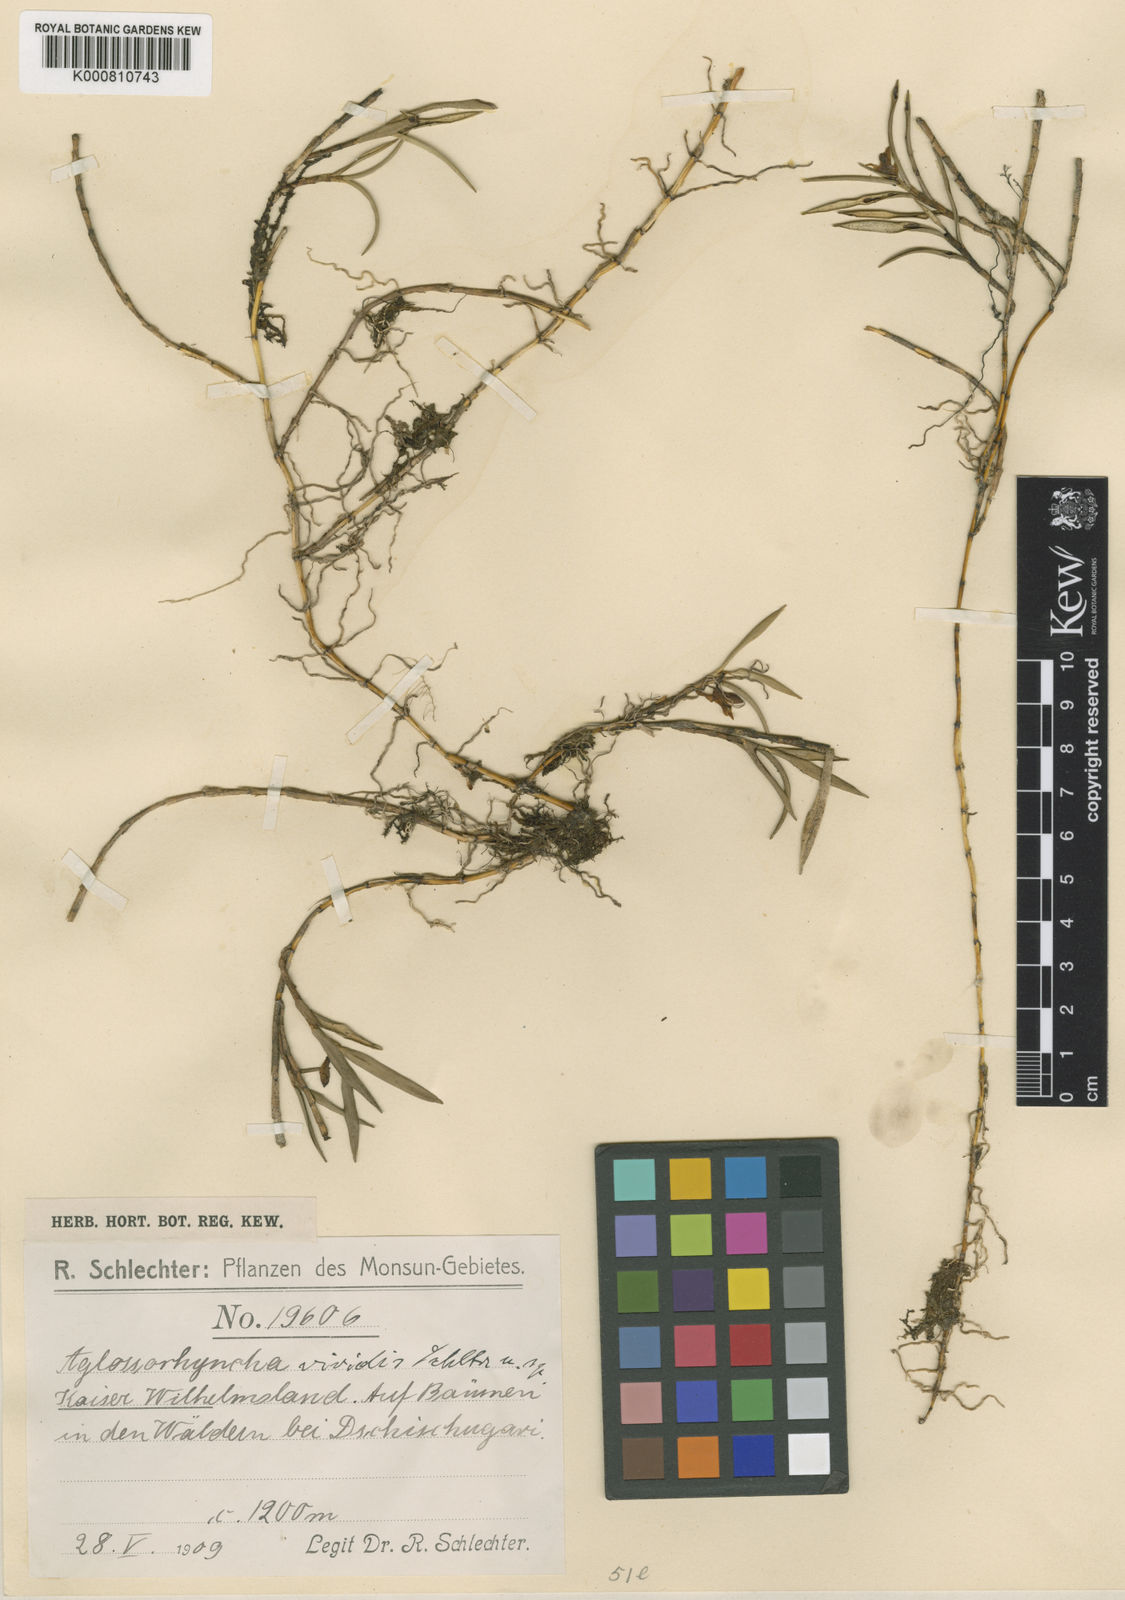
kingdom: Plantae
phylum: Tracheophyta
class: Liliopsida
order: Asparagales
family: Orchidaceae
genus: Aglossorrhyncha
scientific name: Aglossorrhyncha viridis
